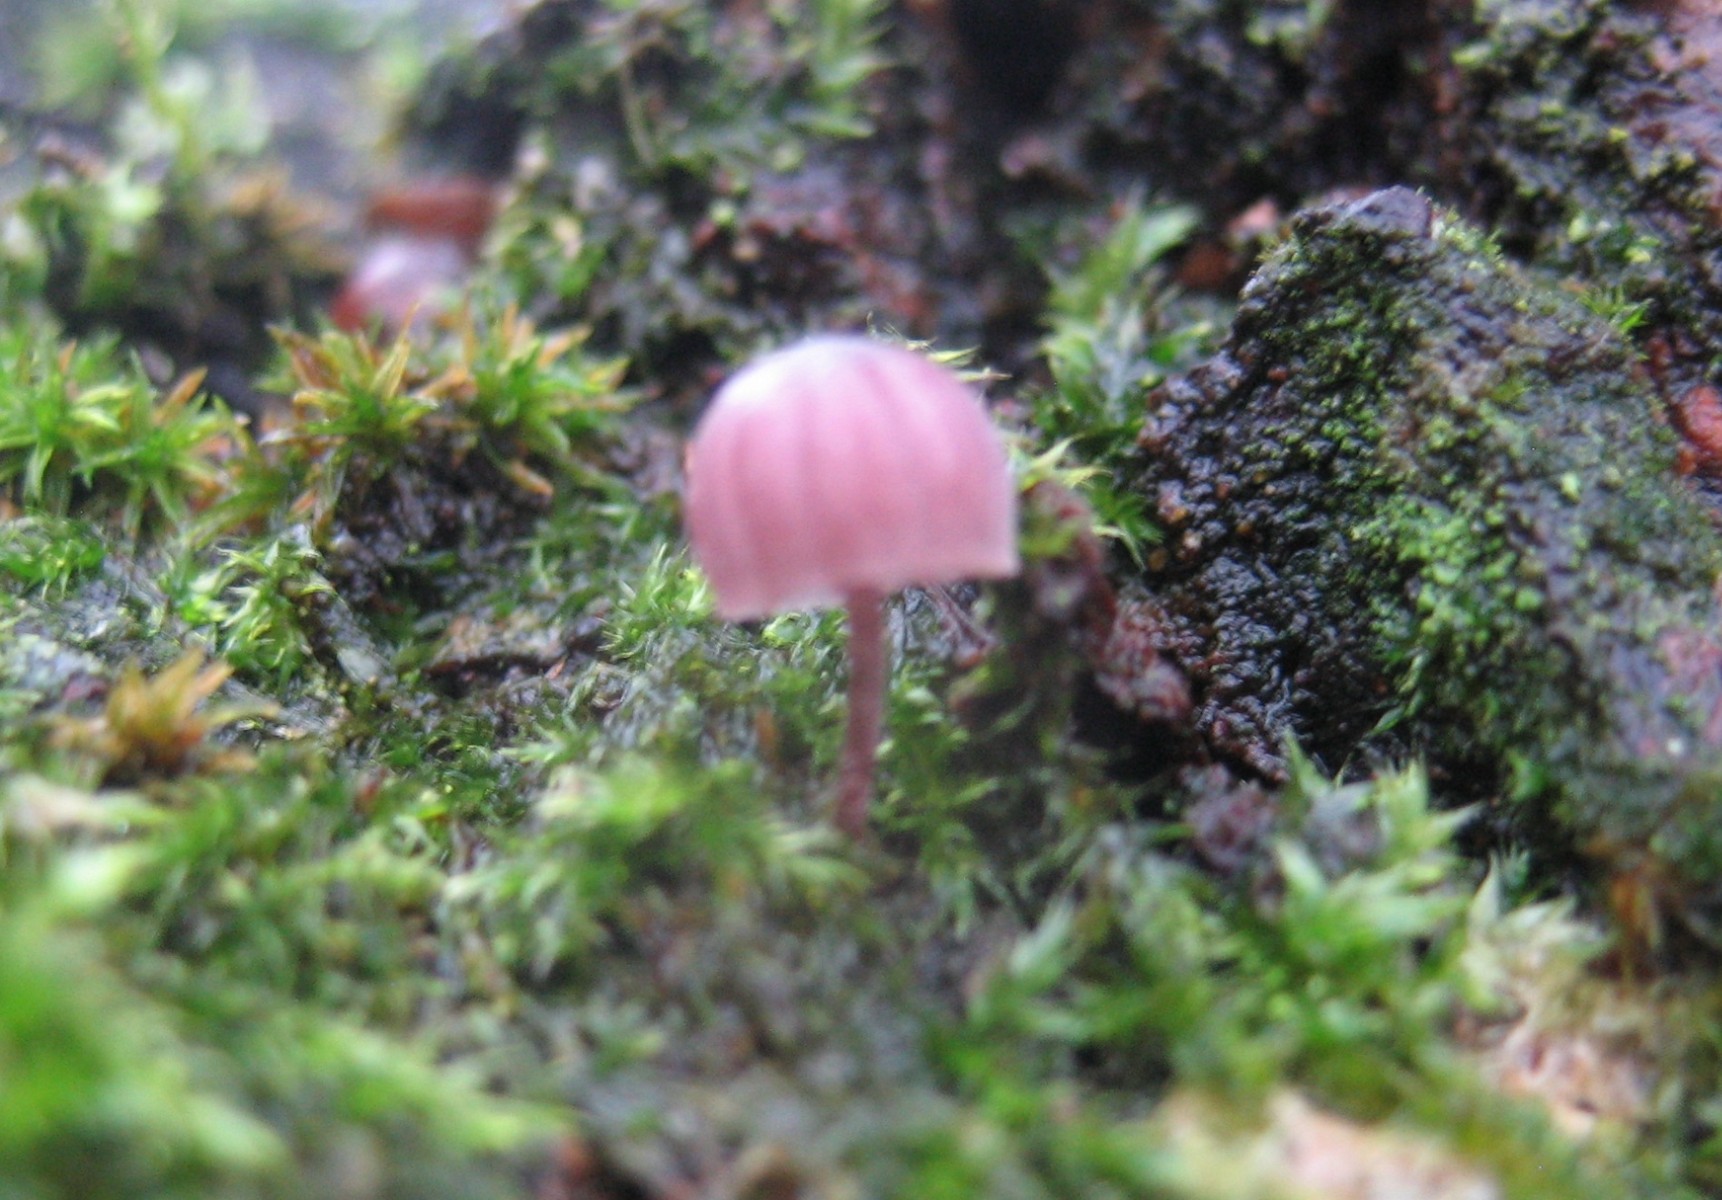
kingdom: Fungi
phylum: Basidiomycota
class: Agaricomycetes
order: Agaricales
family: Mycenaceae
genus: Mycena
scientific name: Mycena meliigena
